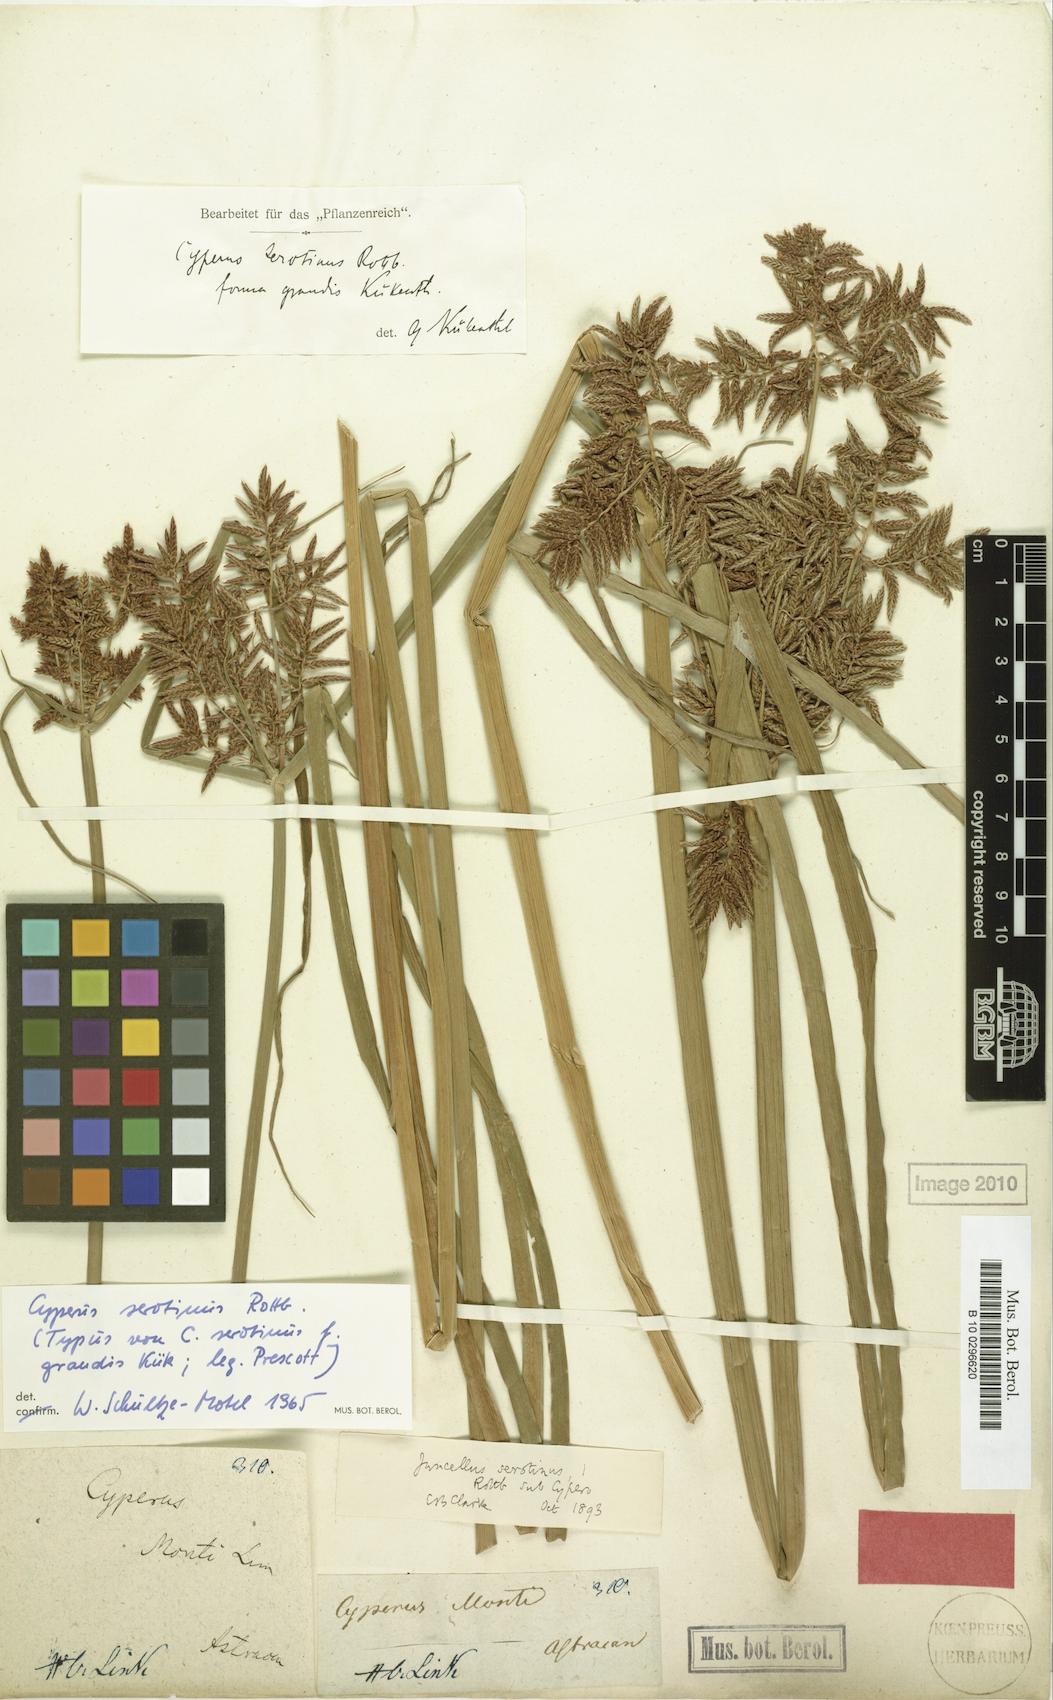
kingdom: Plantae
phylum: Tracheophyta
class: Liliopsida
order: Poales
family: Cyperaceae
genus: Cyperus
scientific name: Cyperus serotinus
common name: Tidalmarsh flatsedge
